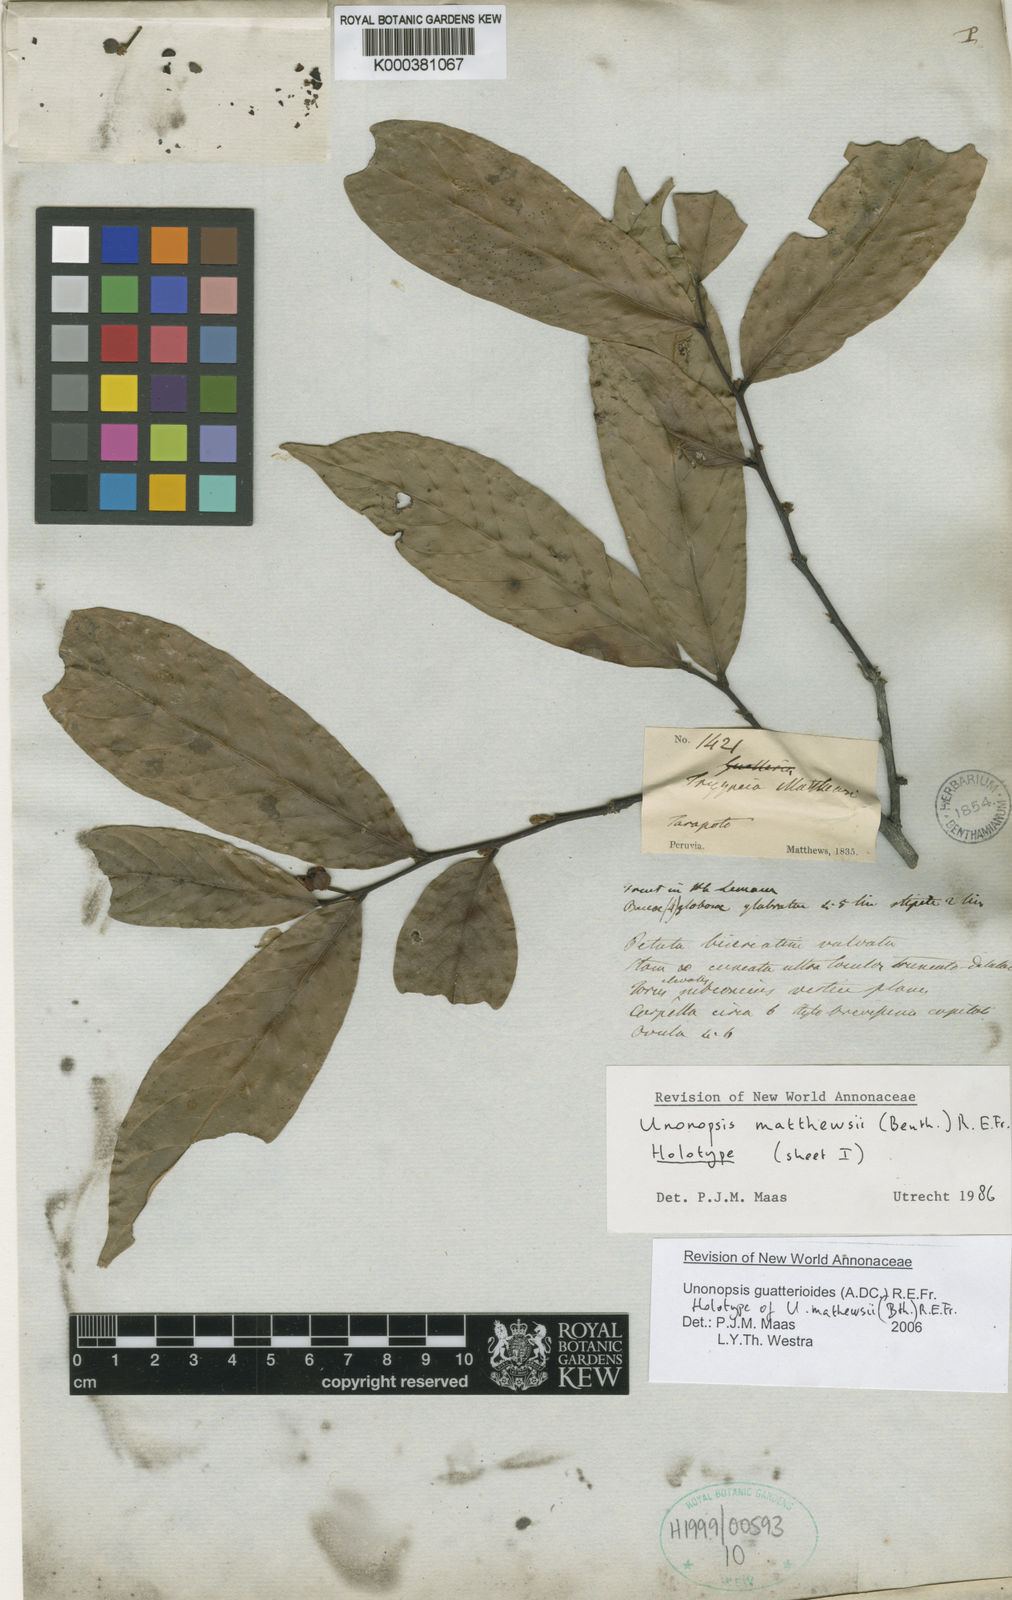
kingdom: Plantae
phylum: Tracheophyta
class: Magnoliopsida
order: Magnoliales
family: Annonaceae
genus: Unonopsis
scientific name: Unonopsis guatterioides
